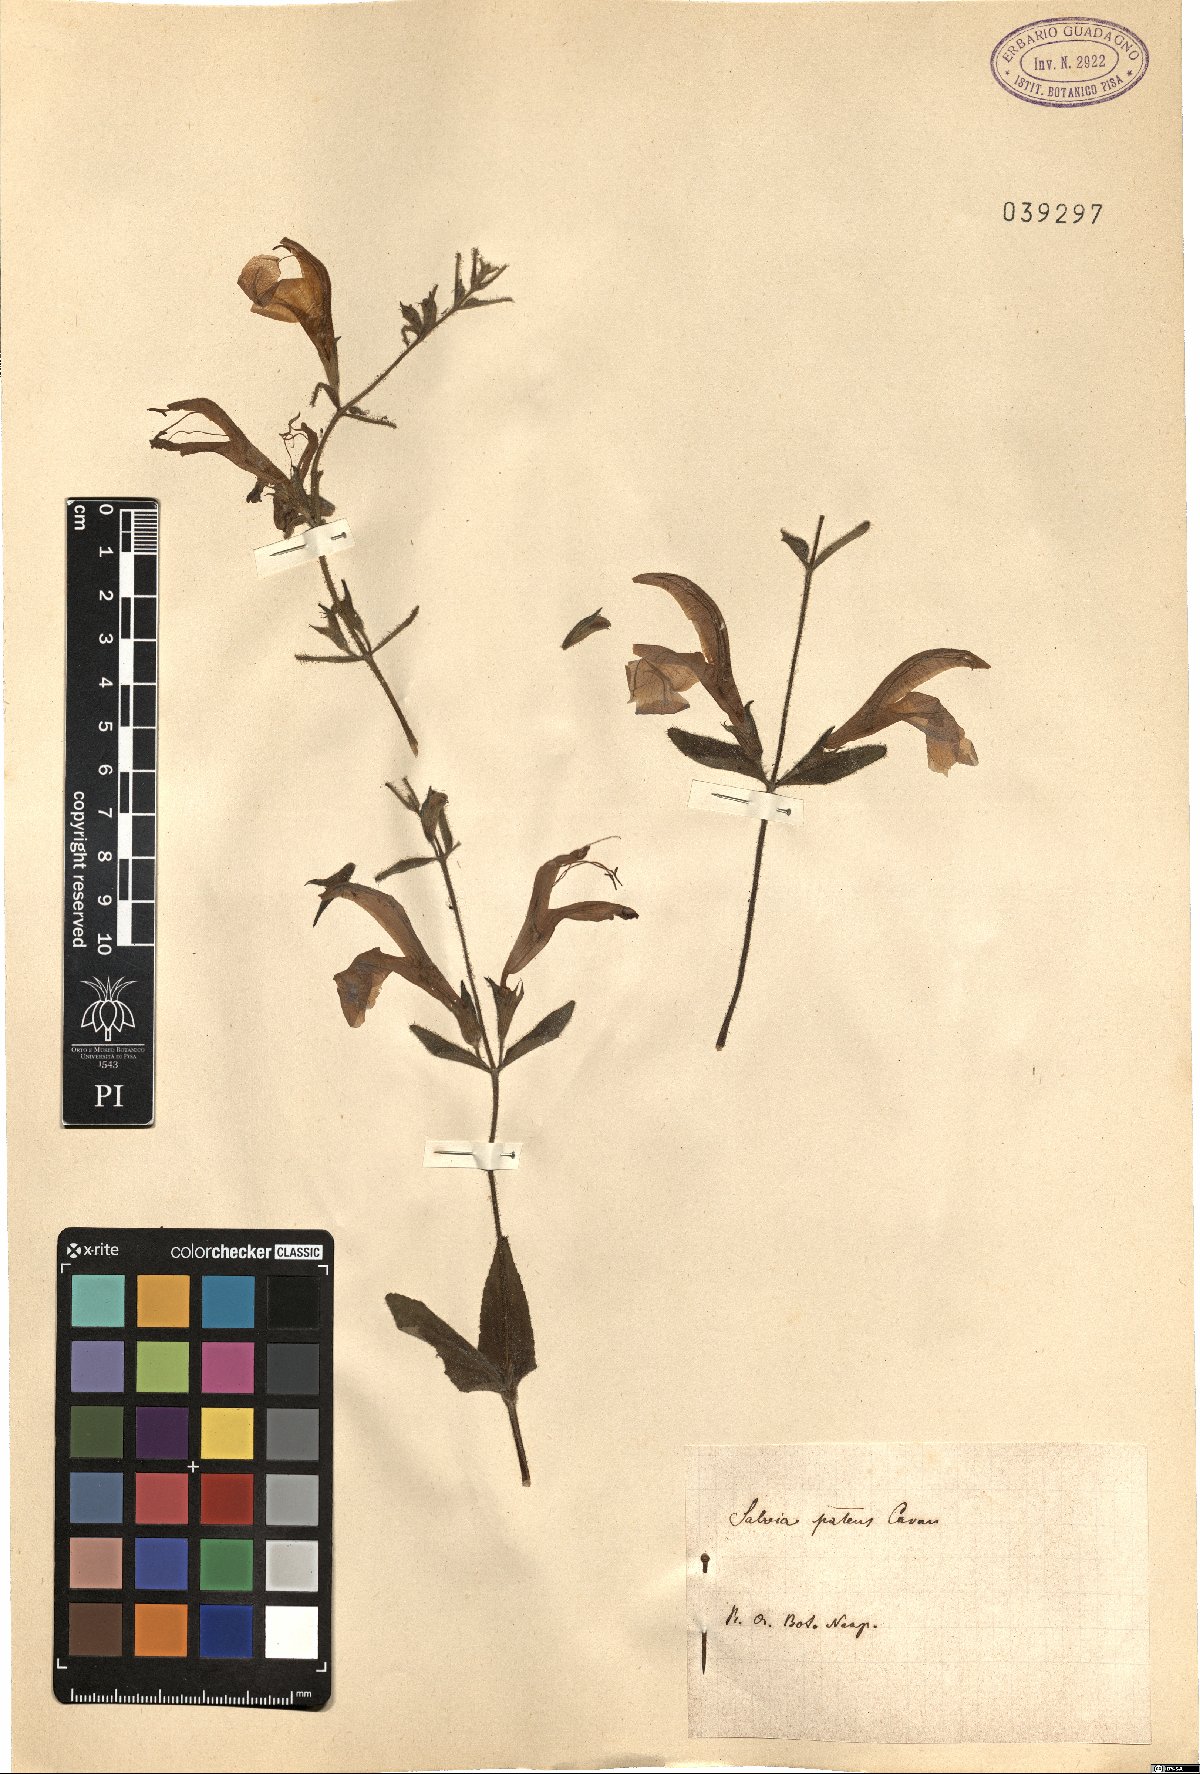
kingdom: Plantae
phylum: Tracheophyta
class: Magnoliopsida
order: Lamiales
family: Lamiaceae
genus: Salvia
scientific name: Salvia patens
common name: Blue sage
